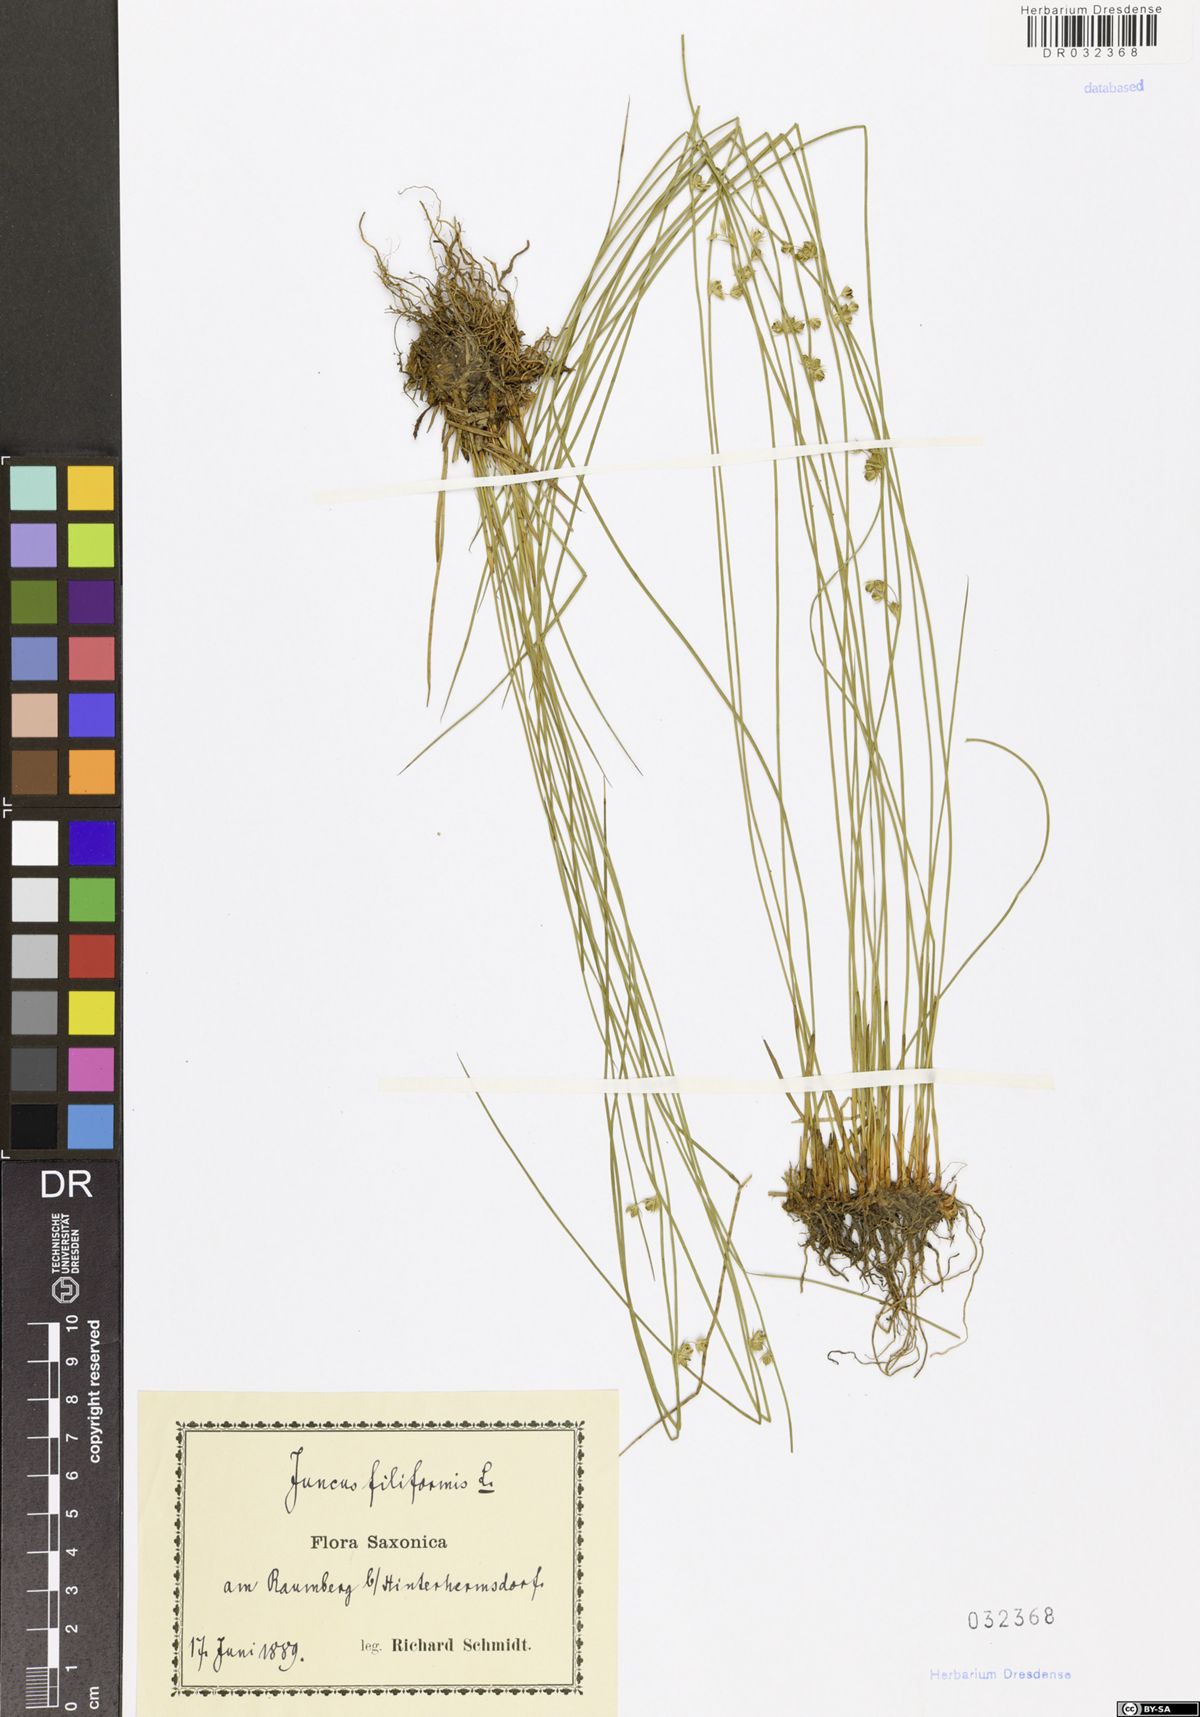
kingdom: Plantae
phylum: Tracheophyta
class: Liliopsida
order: Poales
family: Juncaceae
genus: Juncus
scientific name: Juncus inflexus
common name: Hard rush
